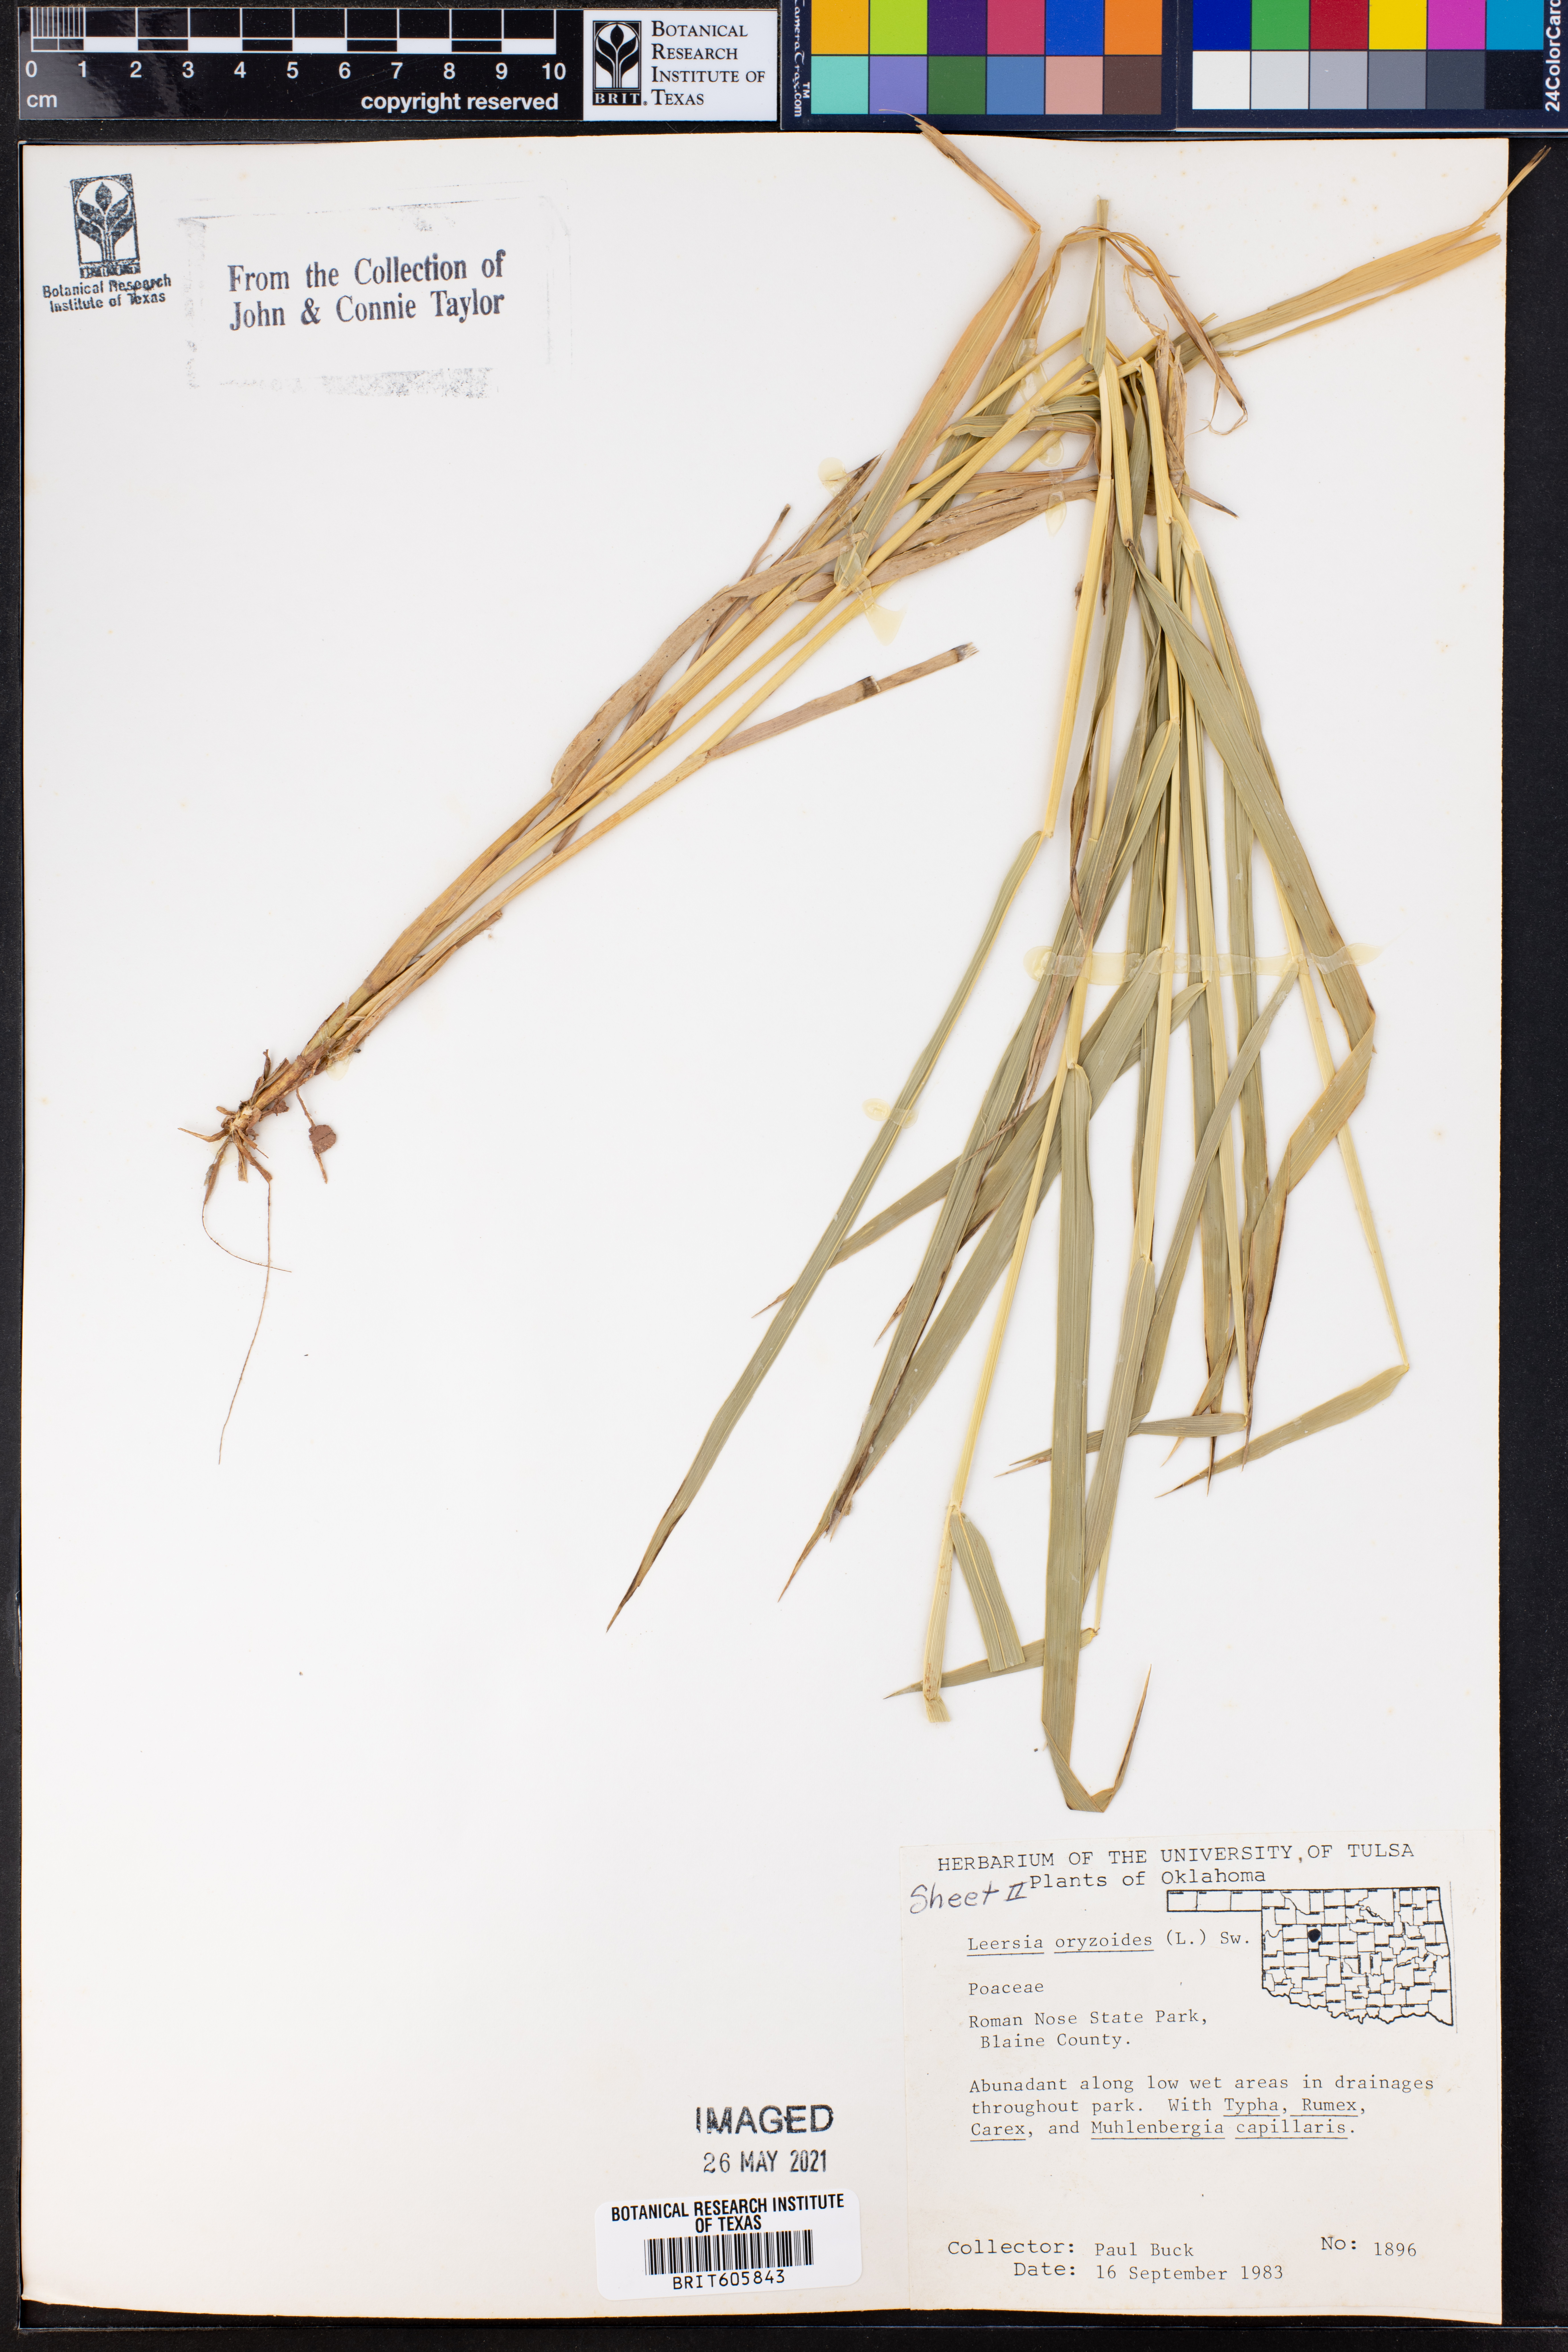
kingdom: Plantae
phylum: Tracheophyta
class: Liliopsida
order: Poales
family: Poaceae
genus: Leersia
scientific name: Leersia oryzoides
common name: Cut-grass
